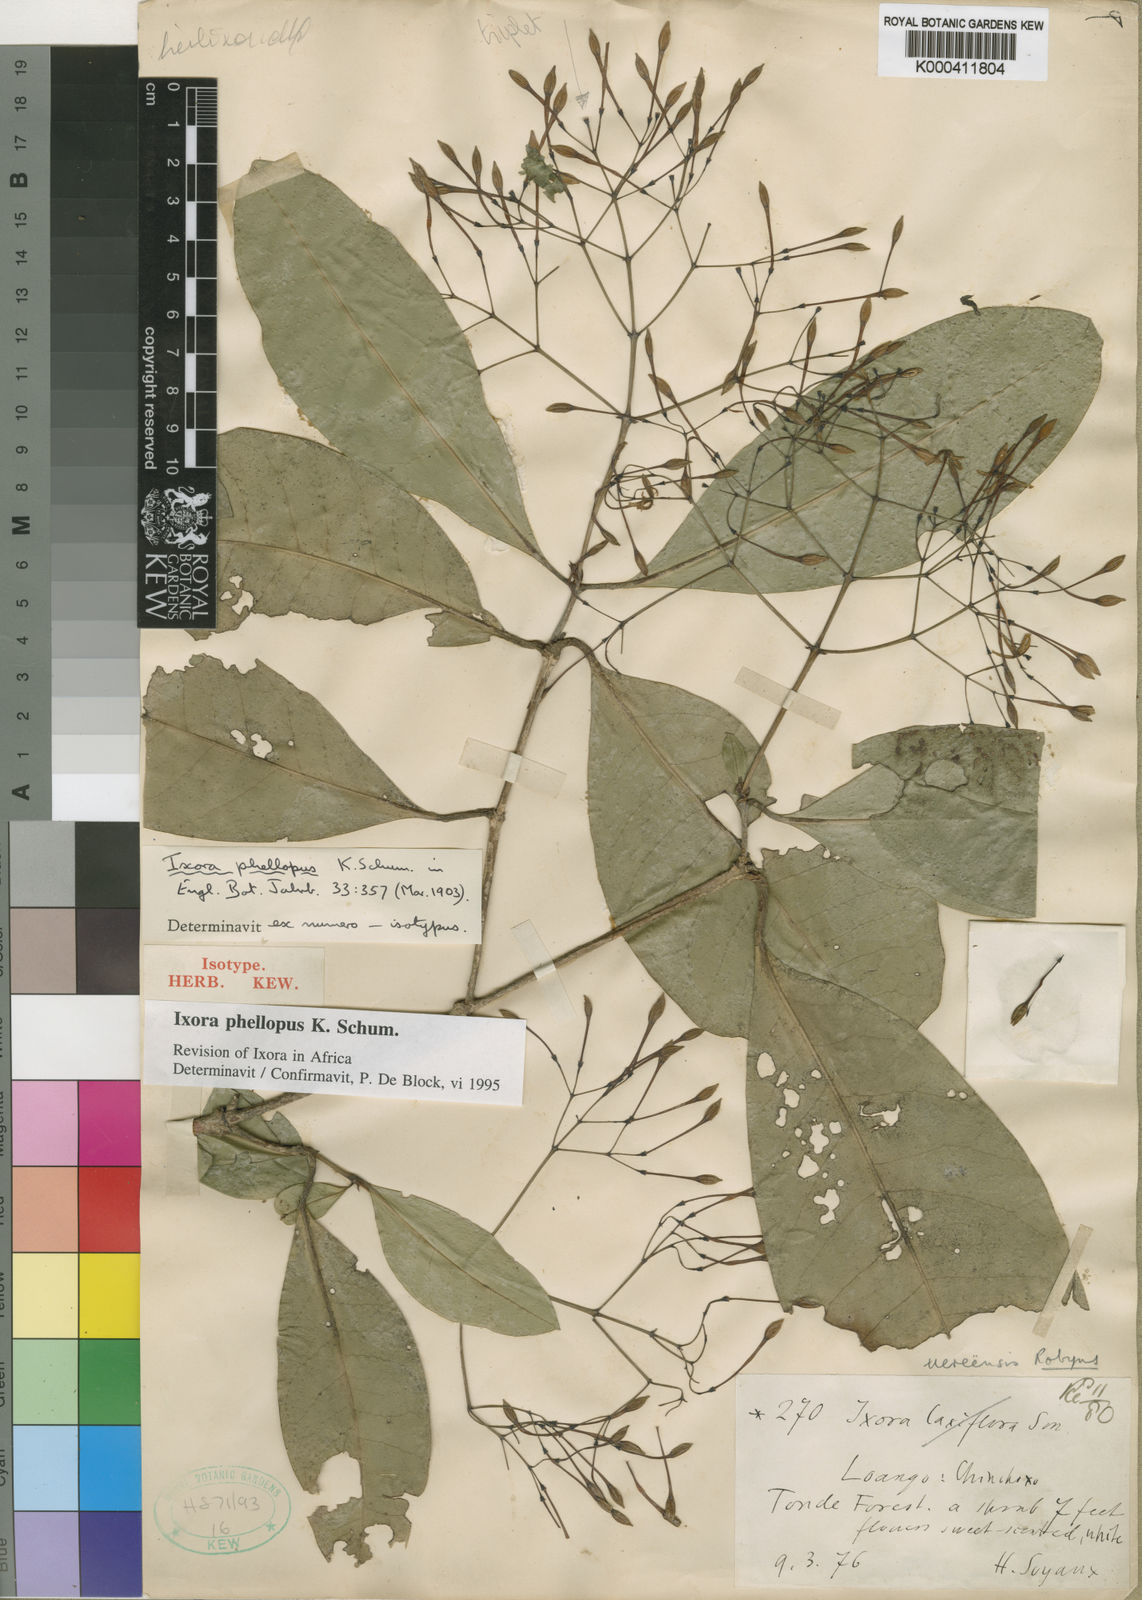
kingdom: Plantae
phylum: Tracheophyta
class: Magnoliopsida
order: Gentianales
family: Rubiaceae
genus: Ixora
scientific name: Ixora phellopus
